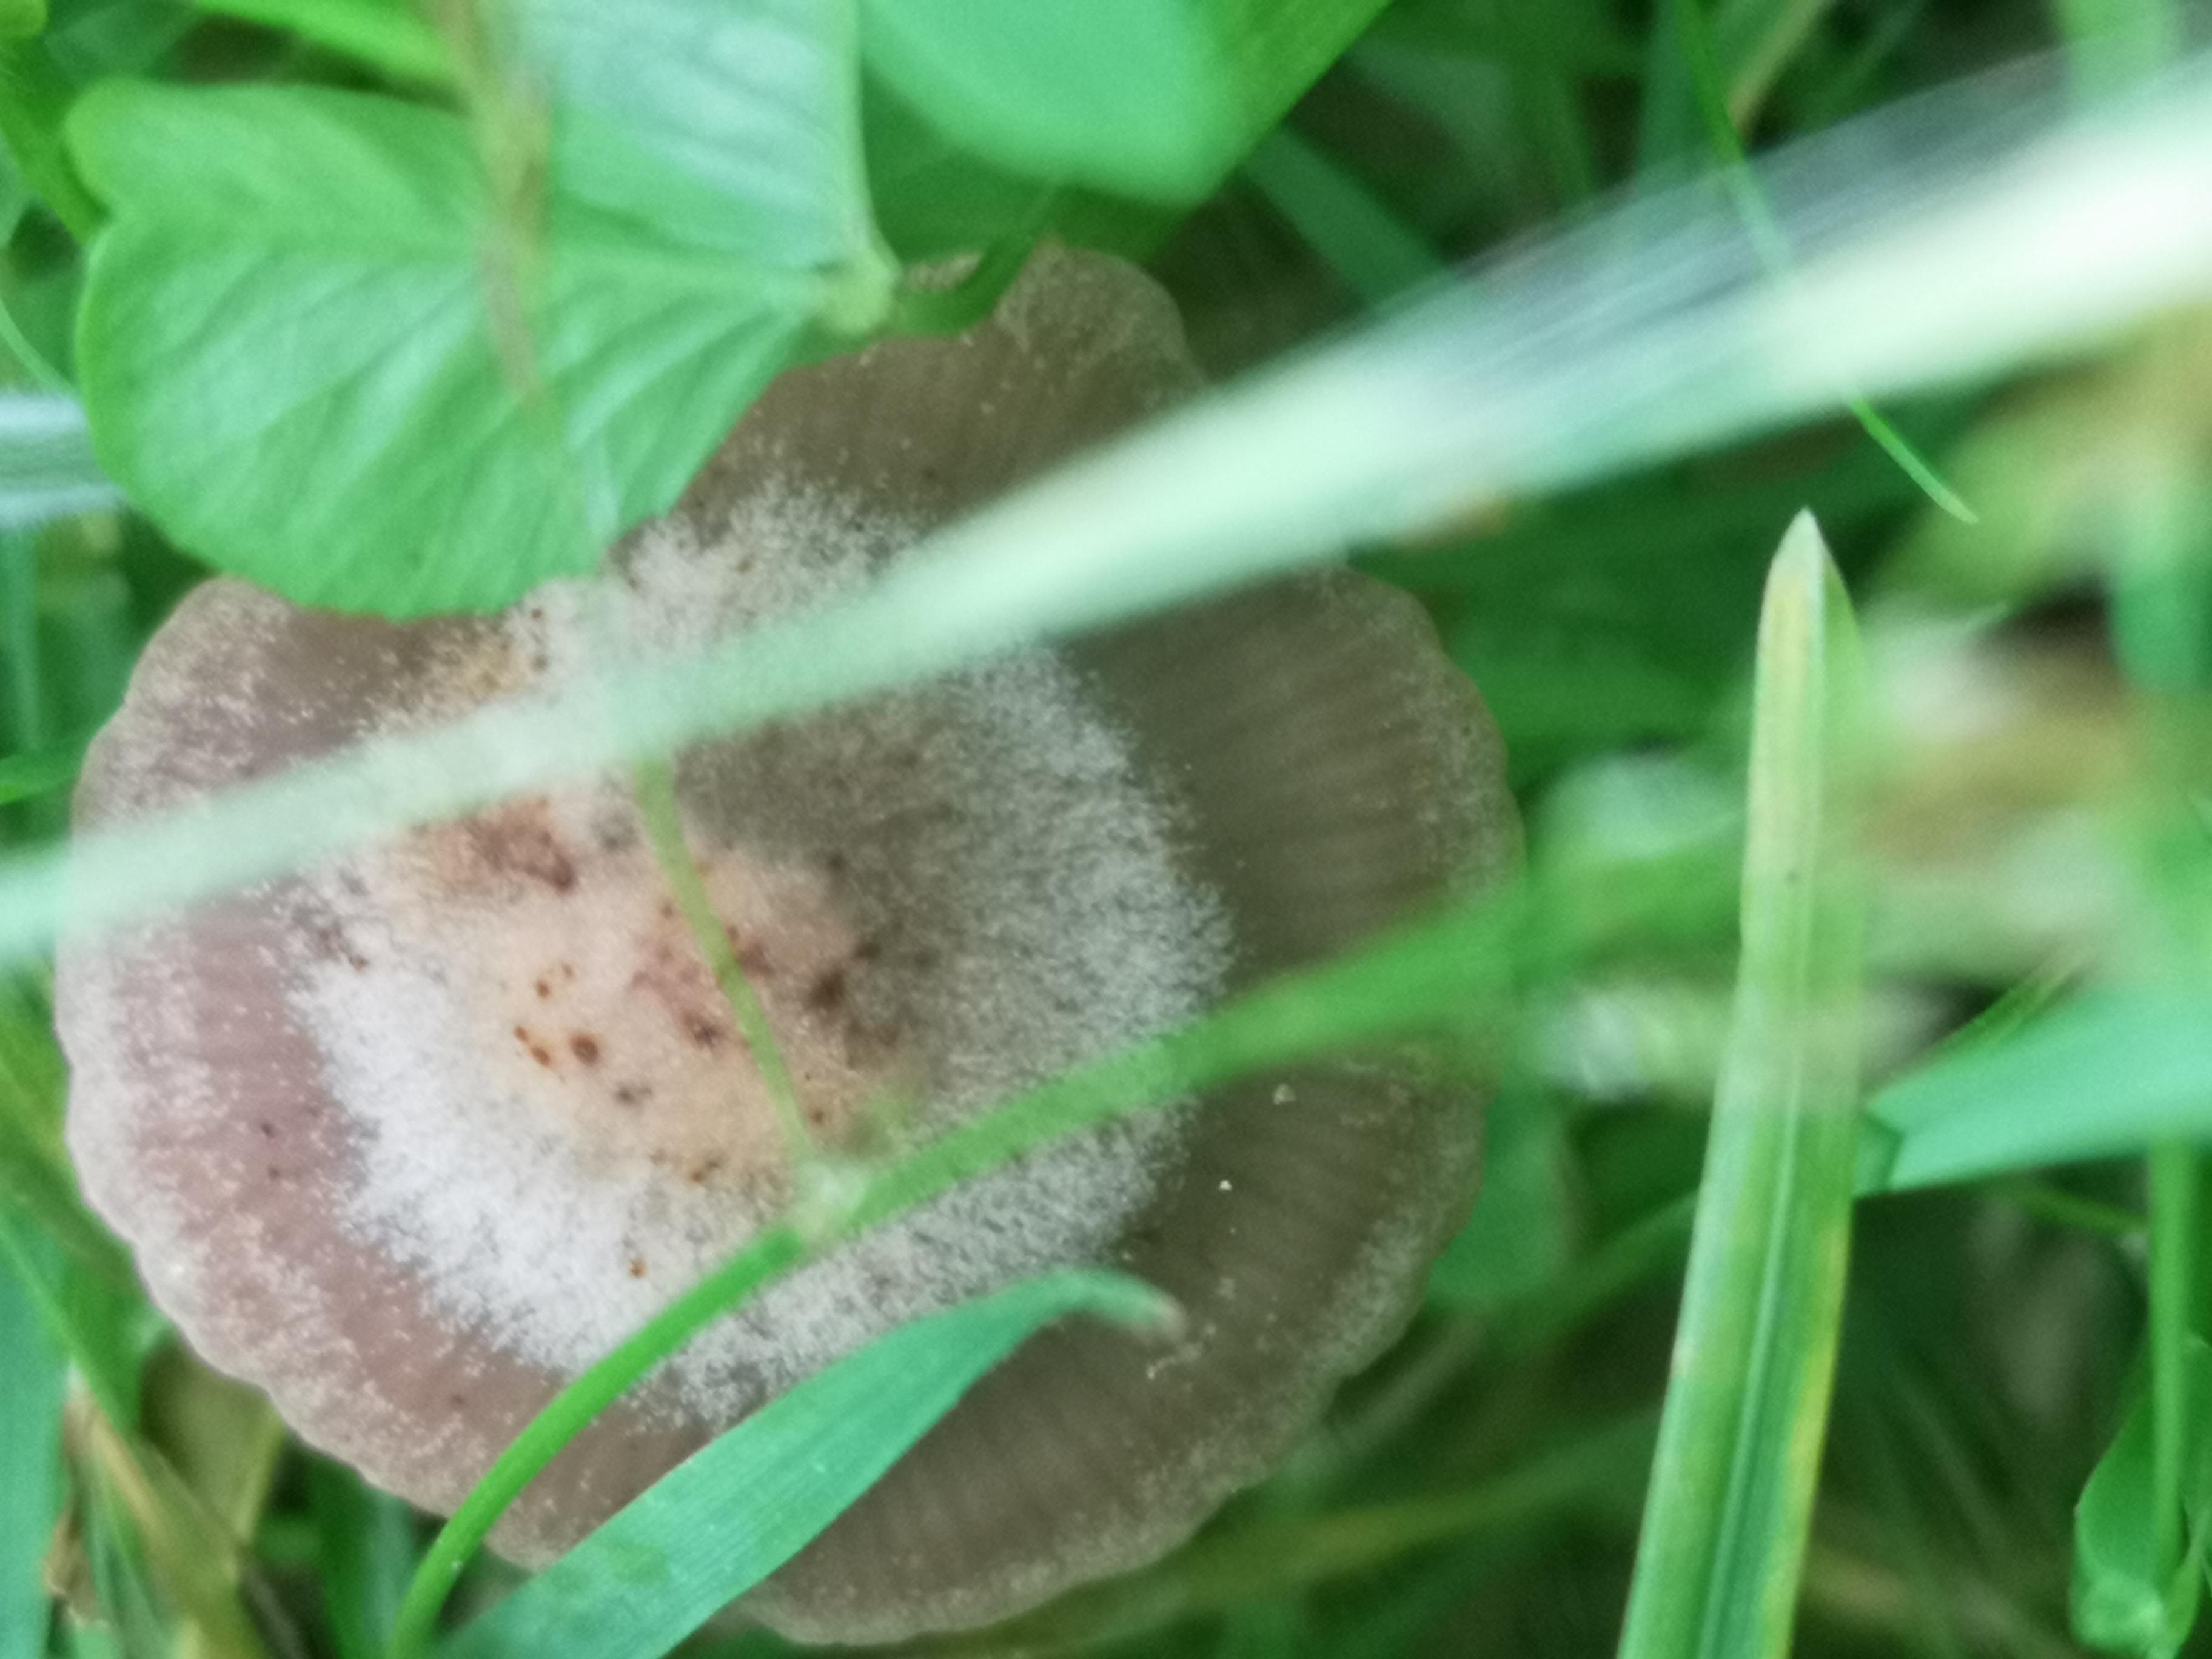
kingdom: Fungi
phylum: Basidiomycota
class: Agaricomycetes
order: Agaricales
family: Bolbitiaceae
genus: Panaeolina
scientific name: Panaeolina foenisecii
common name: høslætsvamp
